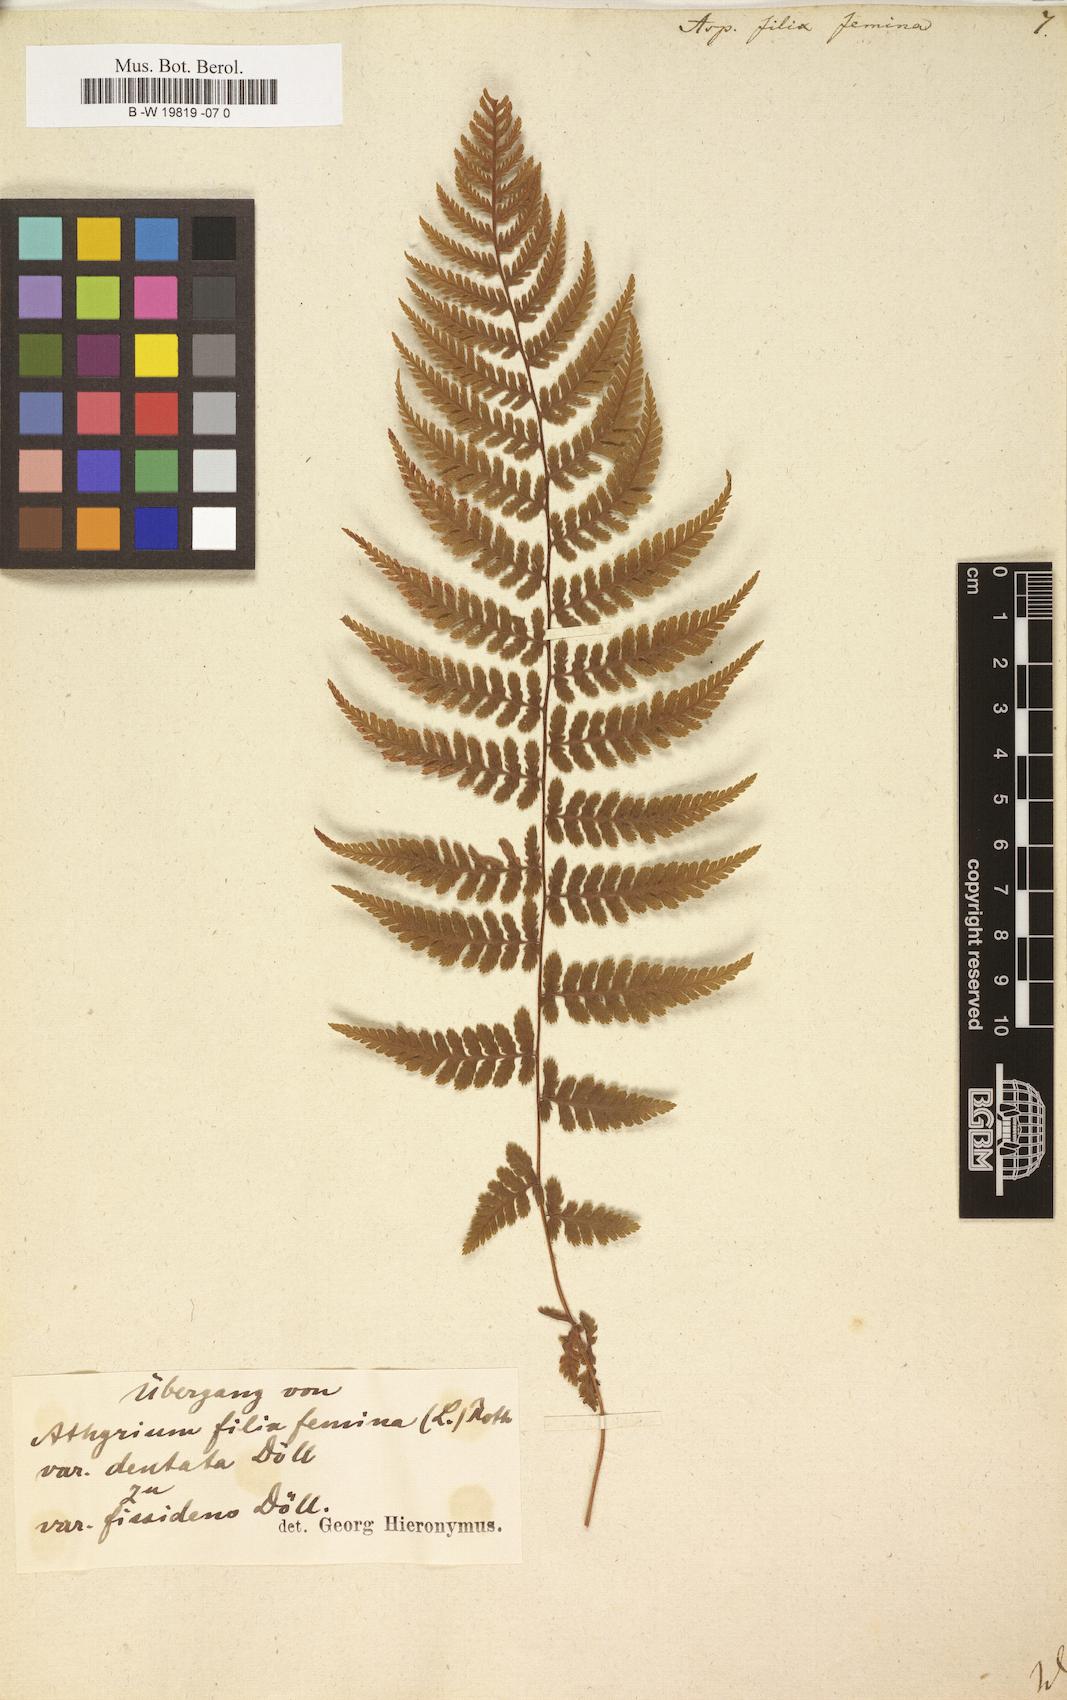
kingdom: Plantae
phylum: Tracheophyta
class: Polypodiopsida
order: Polypodiales
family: Athyriaceae
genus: Athyrium
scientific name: Athyrium filix-femina
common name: Lady fern
